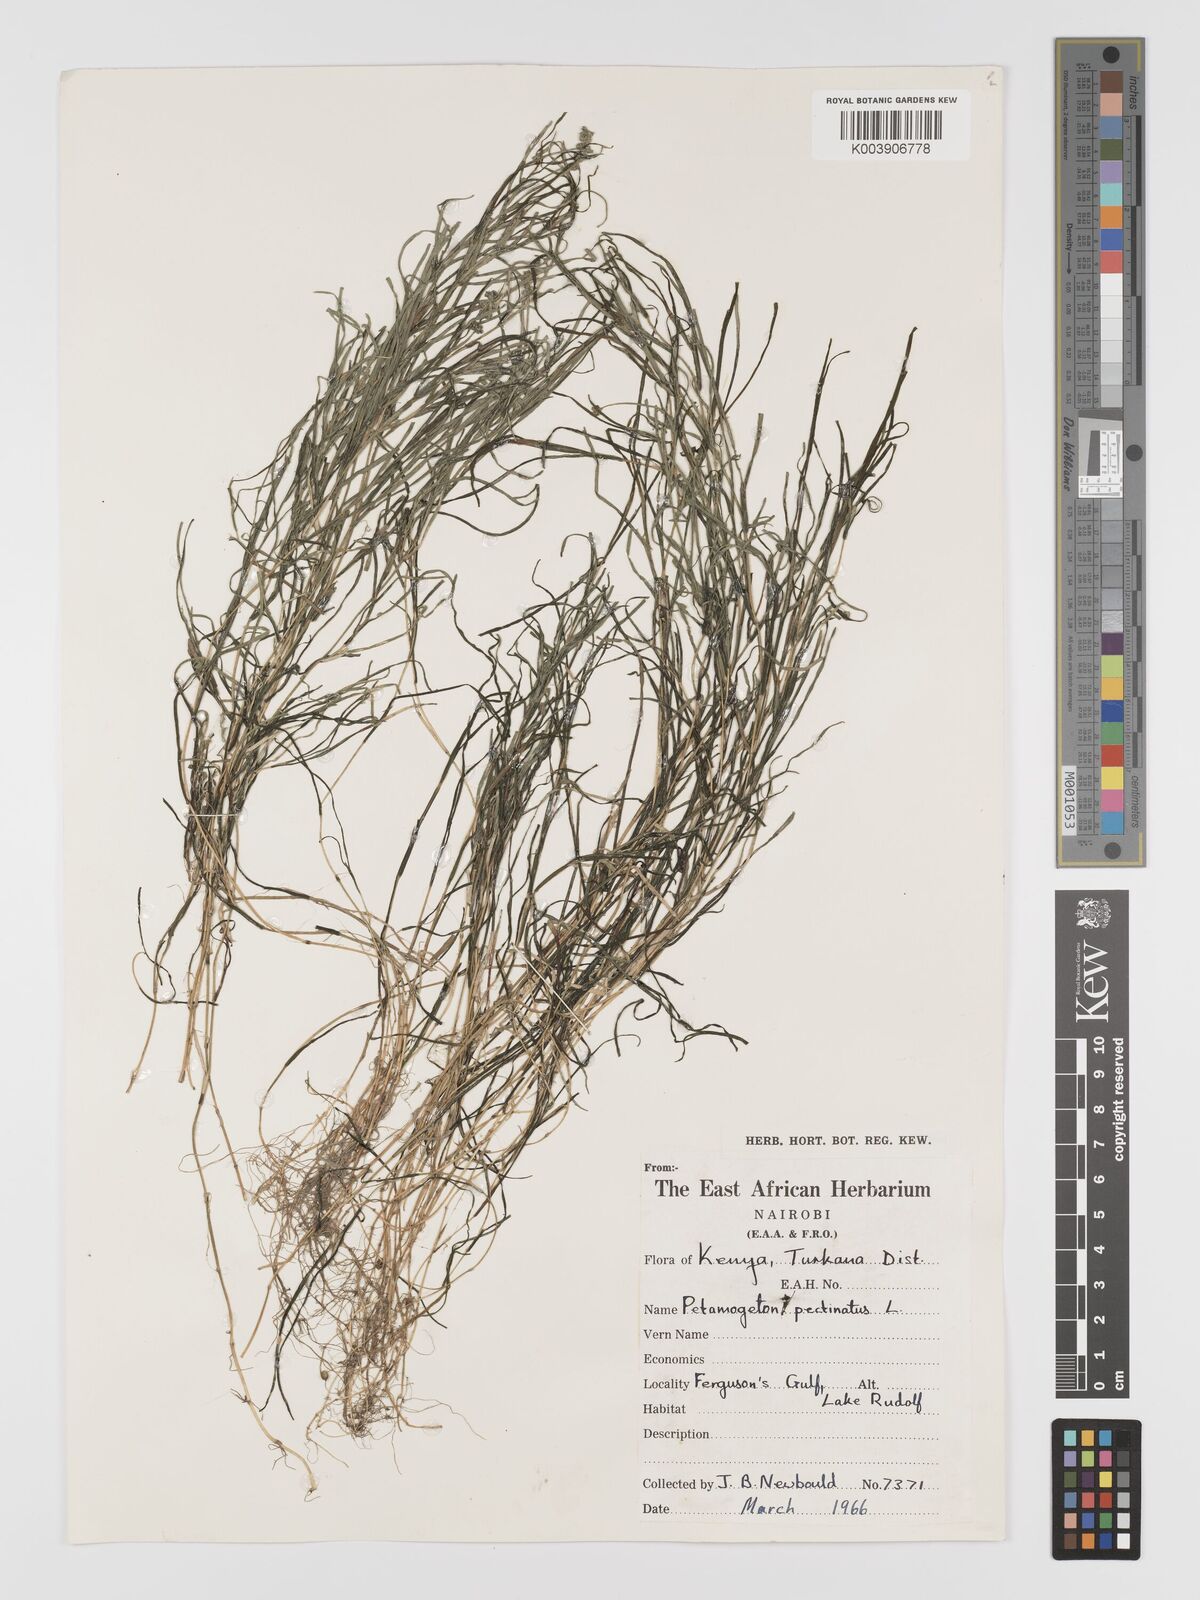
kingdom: Plantae
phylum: Tracheophyta
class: Liliopsida
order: Alismatales
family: Potamogetonaceae
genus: Stuckenia
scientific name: Stuckenia pectinata
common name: Sago pondweed
